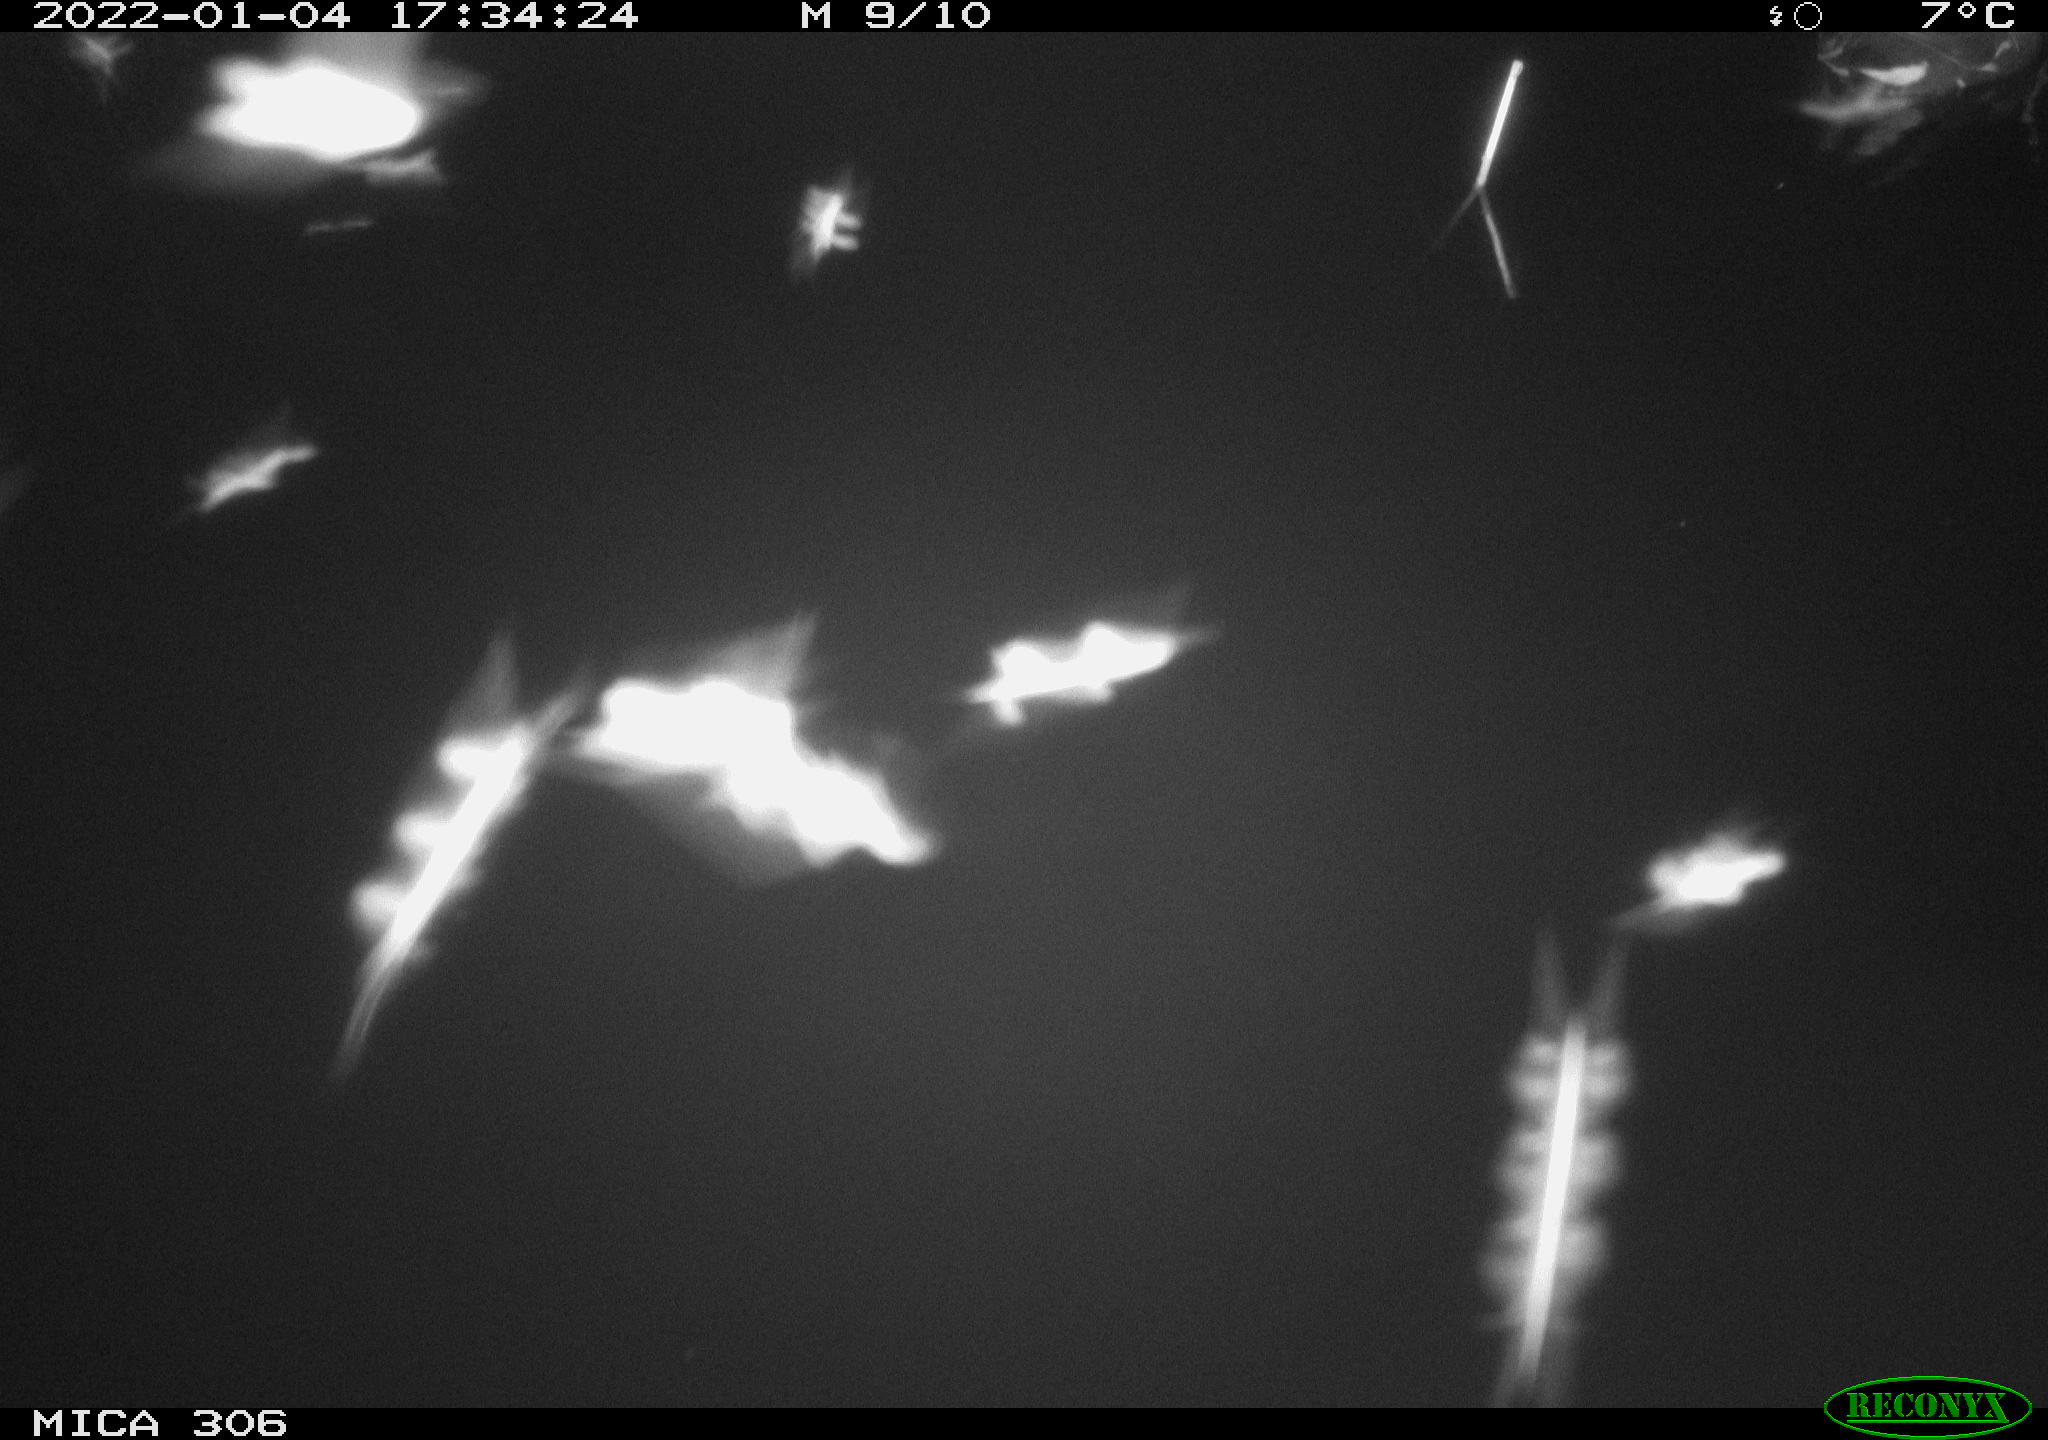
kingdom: Animalia
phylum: Chordata
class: Aves
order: Anseriformes
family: Anatidae
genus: Anas
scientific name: Anas
